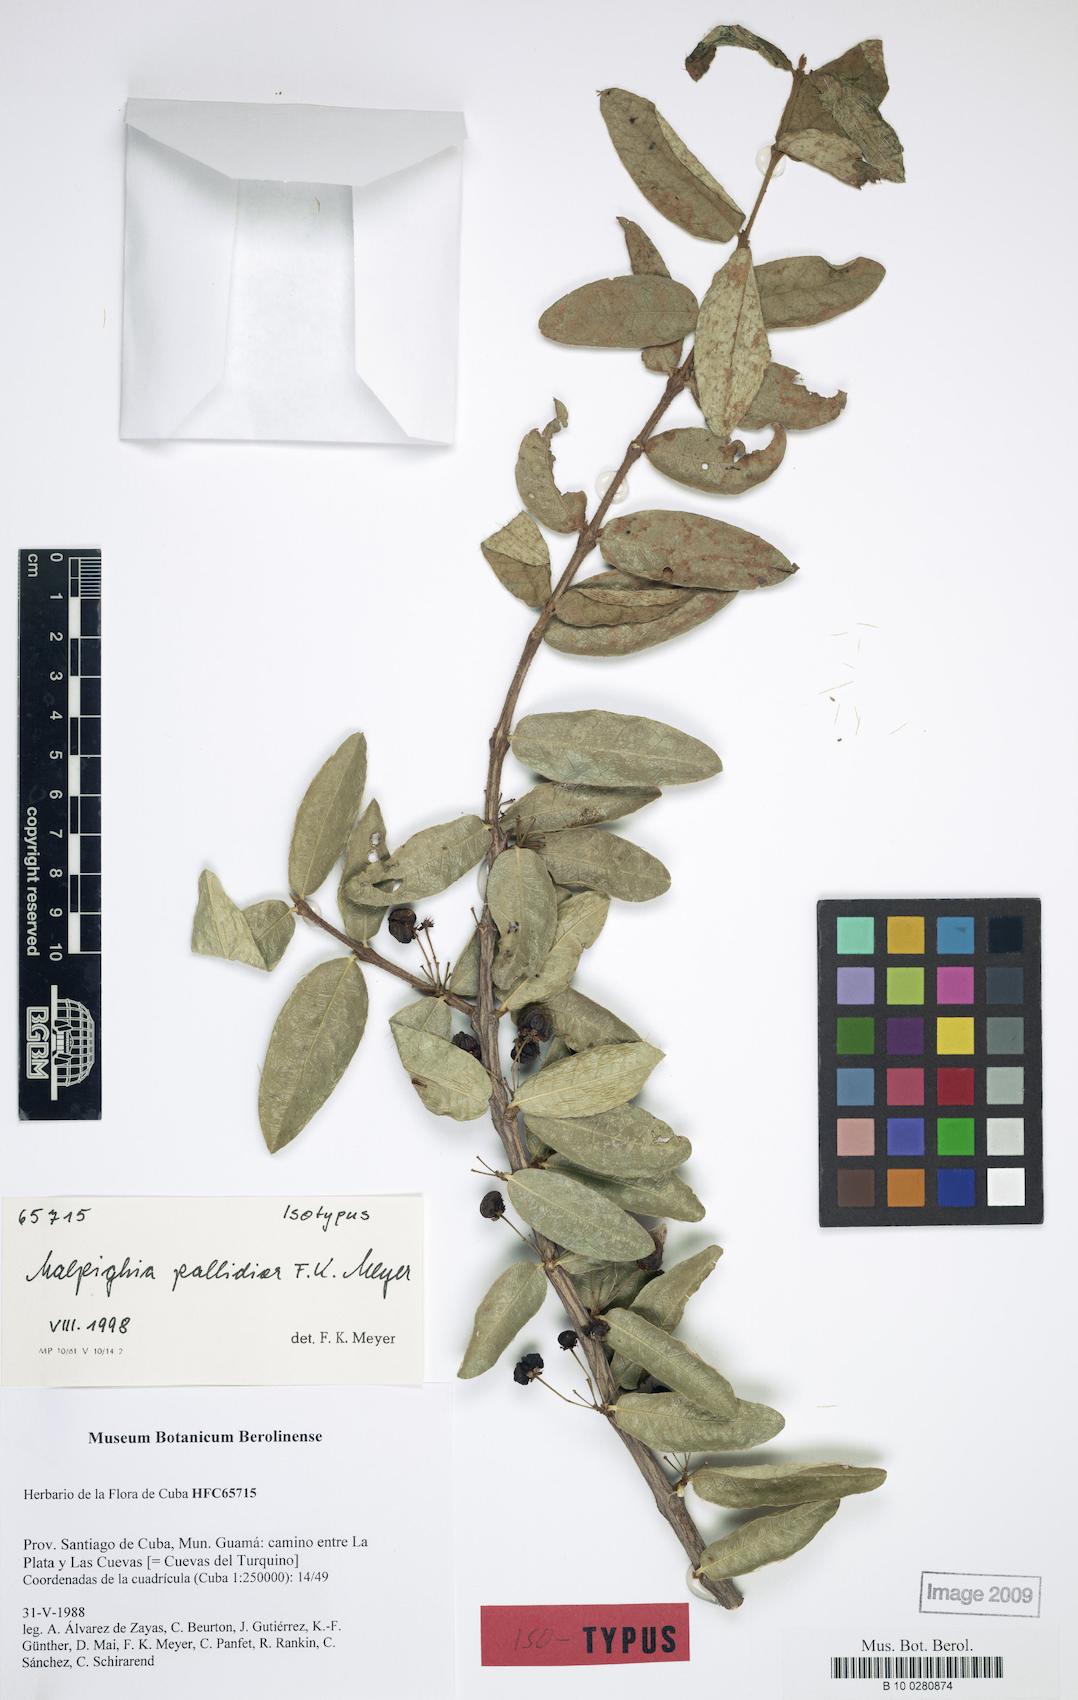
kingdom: Plantae
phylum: Tracheophyta
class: Magnoliopsida
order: Malpighiales
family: Malpighiaceae
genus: Malpighia
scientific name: Malpighia pallidior
